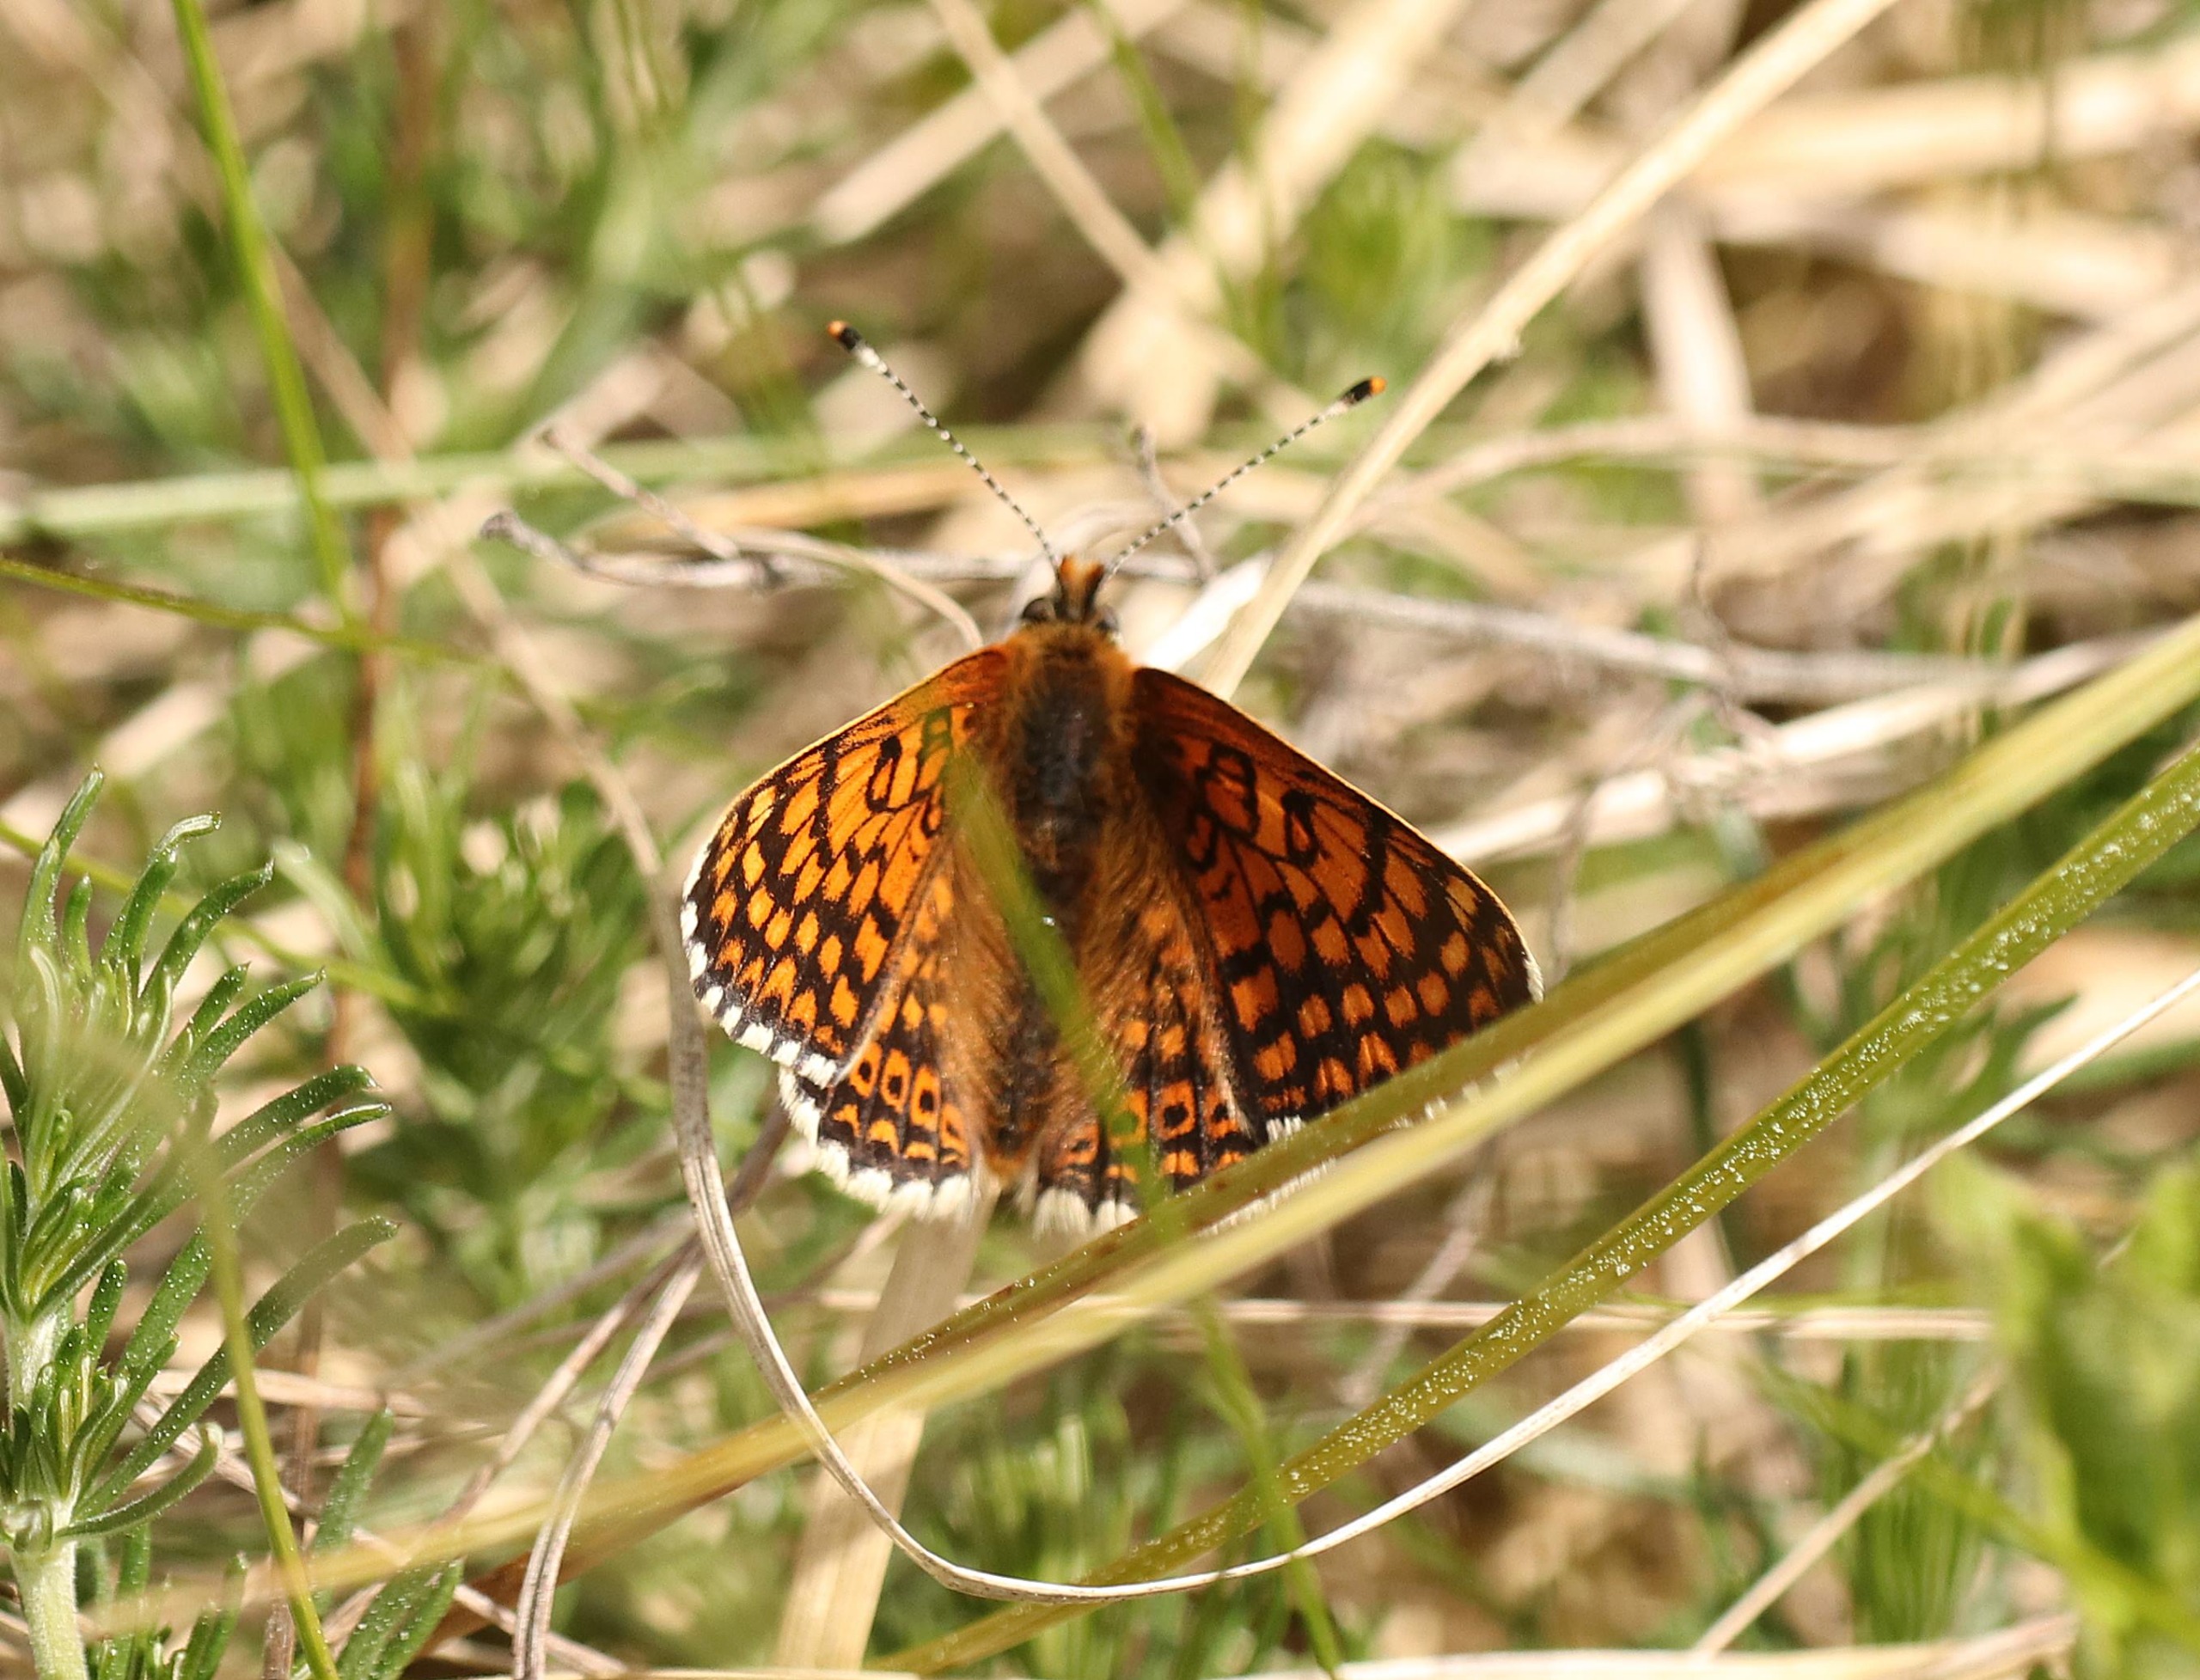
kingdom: Animalia
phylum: Arthropoda
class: Insecta
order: Lepidoptera
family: Nymphalidae
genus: Melitaea
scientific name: Melitaea cinxia
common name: Okkergul pletvinge
